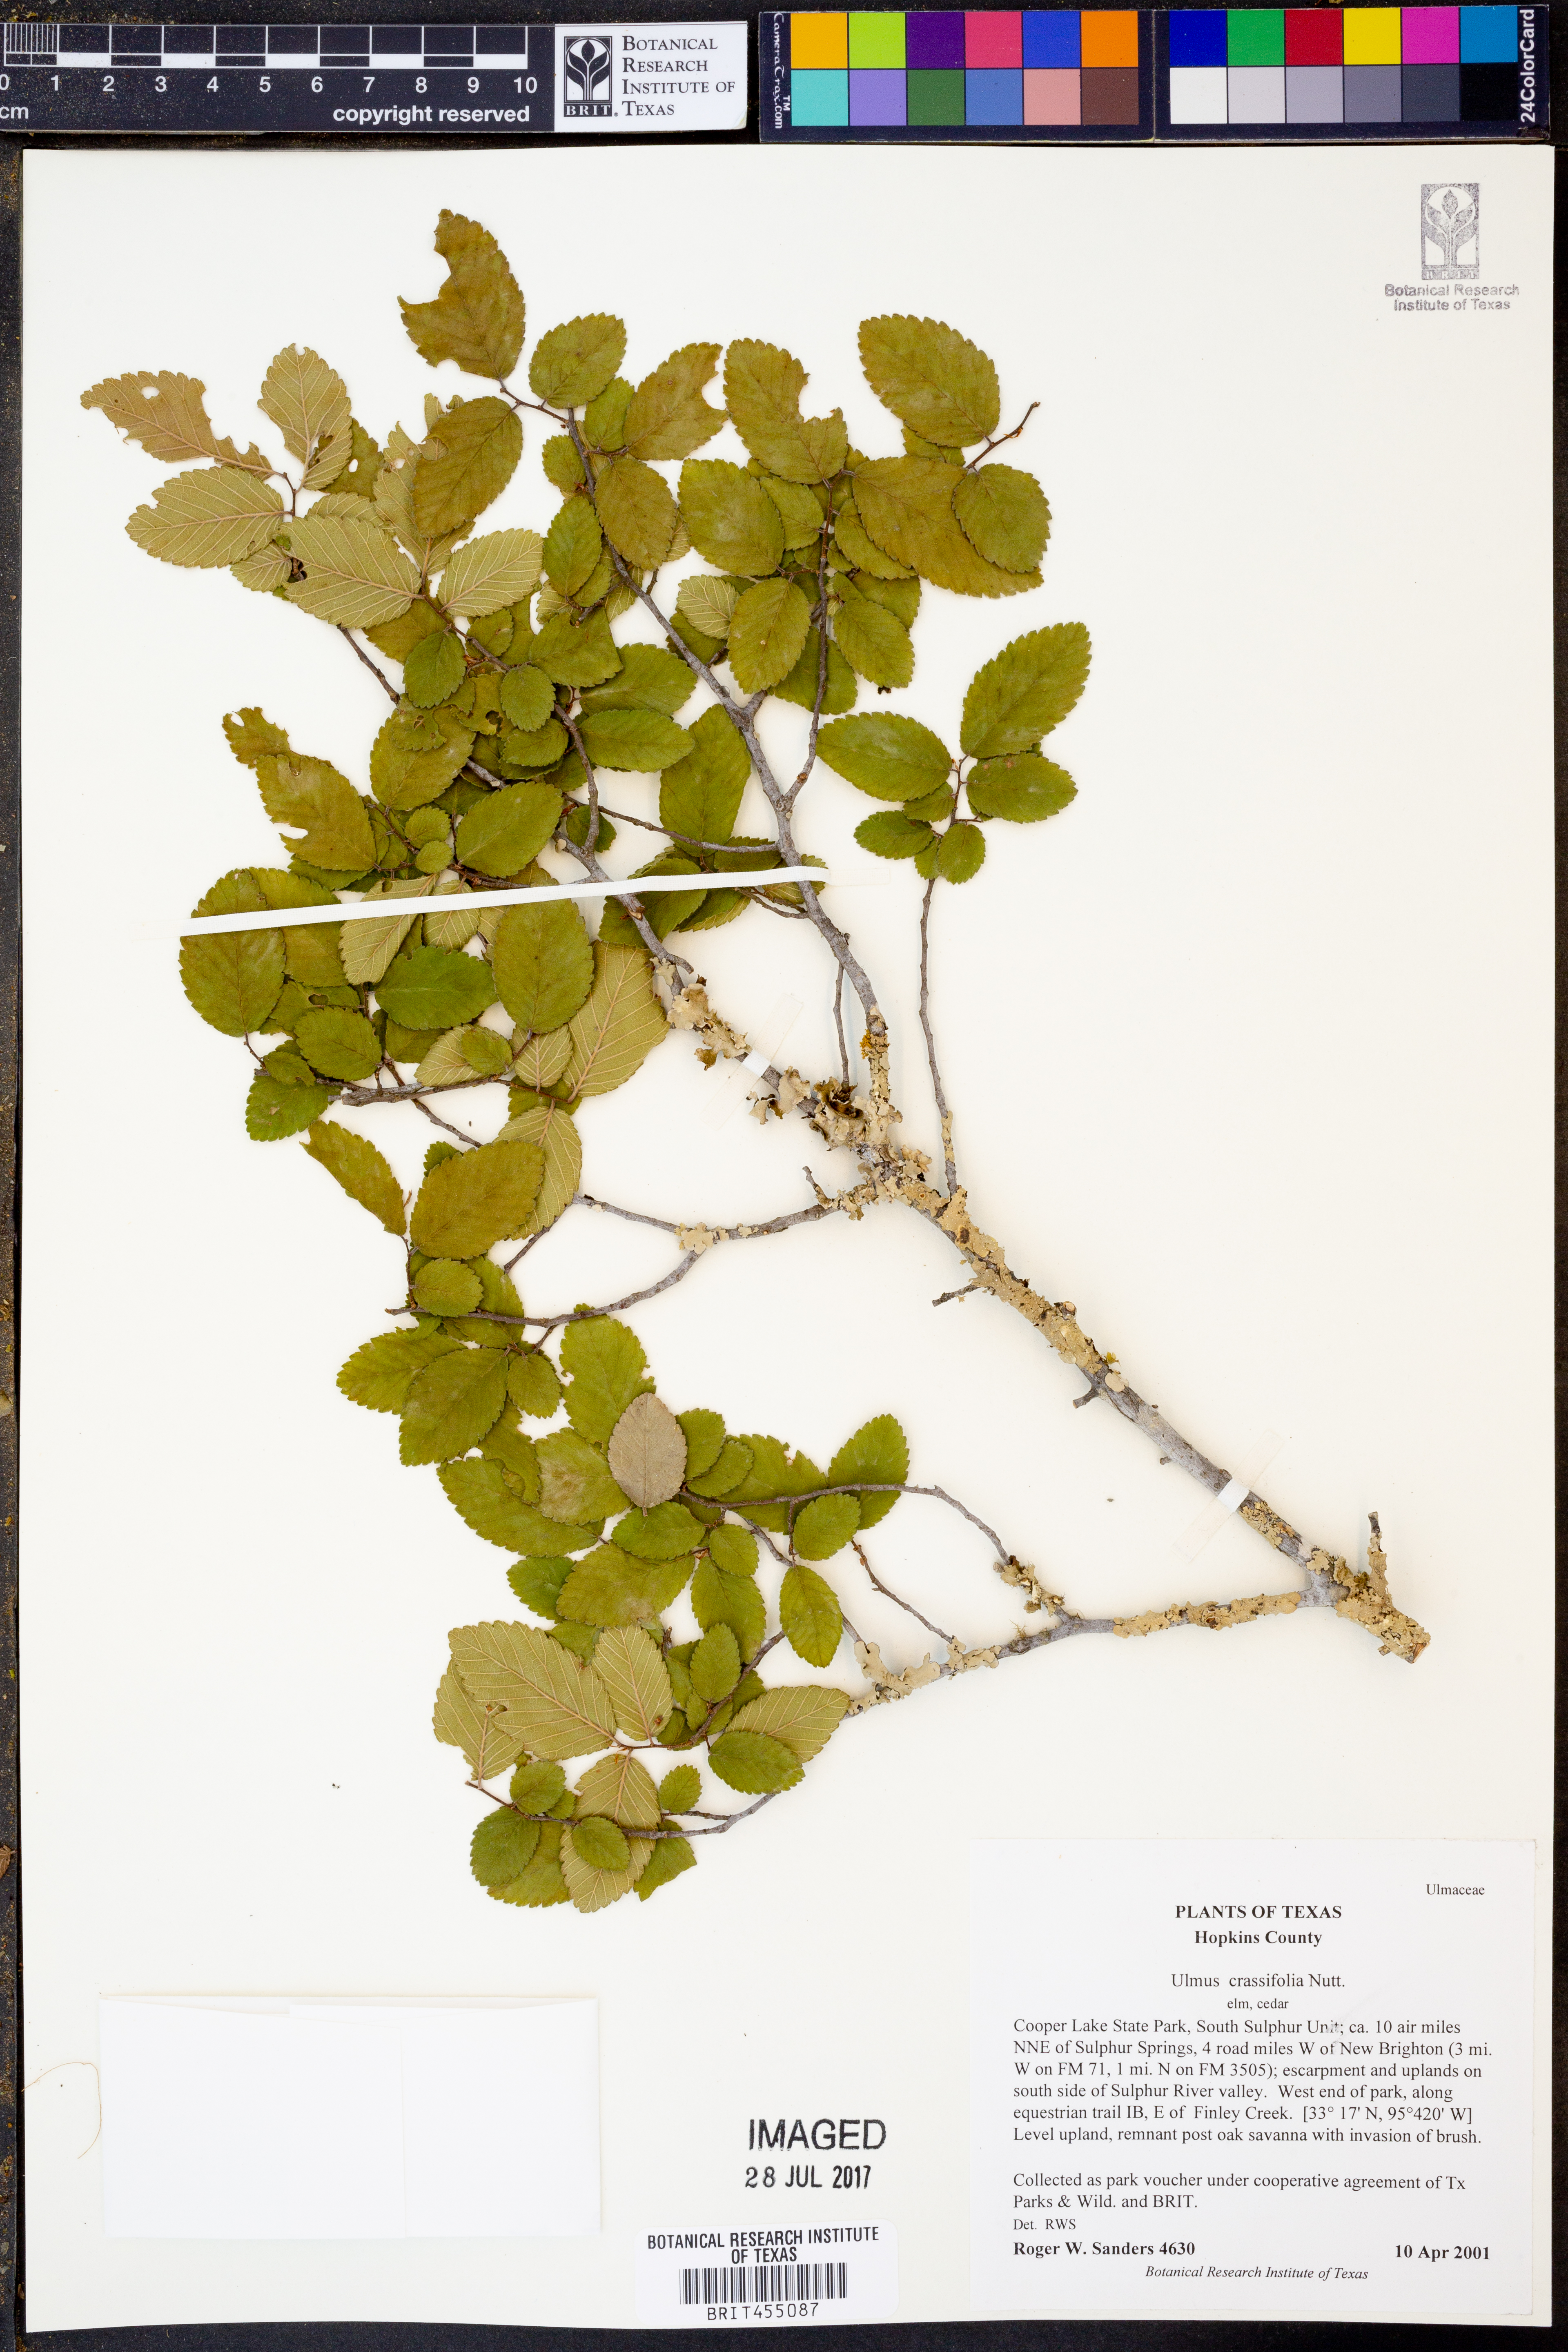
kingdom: Plantae
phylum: Tracheophyta
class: Magnoliopsida
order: Rosales
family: Ulmaceae
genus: Ulmus
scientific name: Ulmus crassifolia
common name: Basket elm
